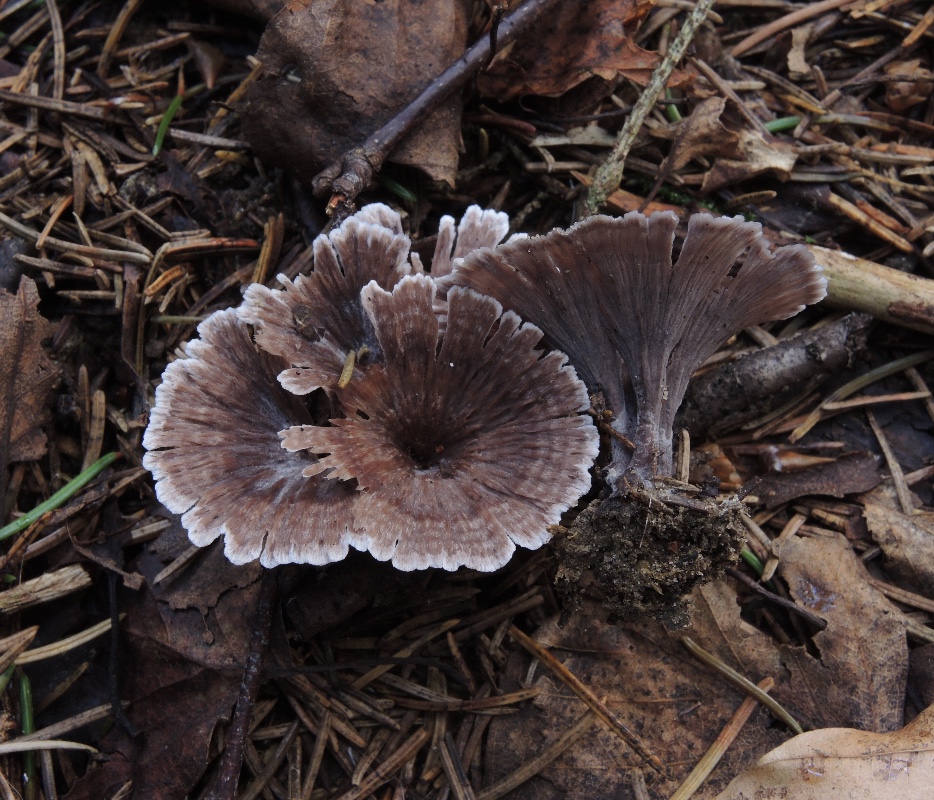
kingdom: Fungi
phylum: Basidiomycota
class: Agaricomycetes
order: Thelephorales
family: Thelephoraceae
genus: Thelephora
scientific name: Thelephora caryophyllea
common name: tragt-frynsesvamp
